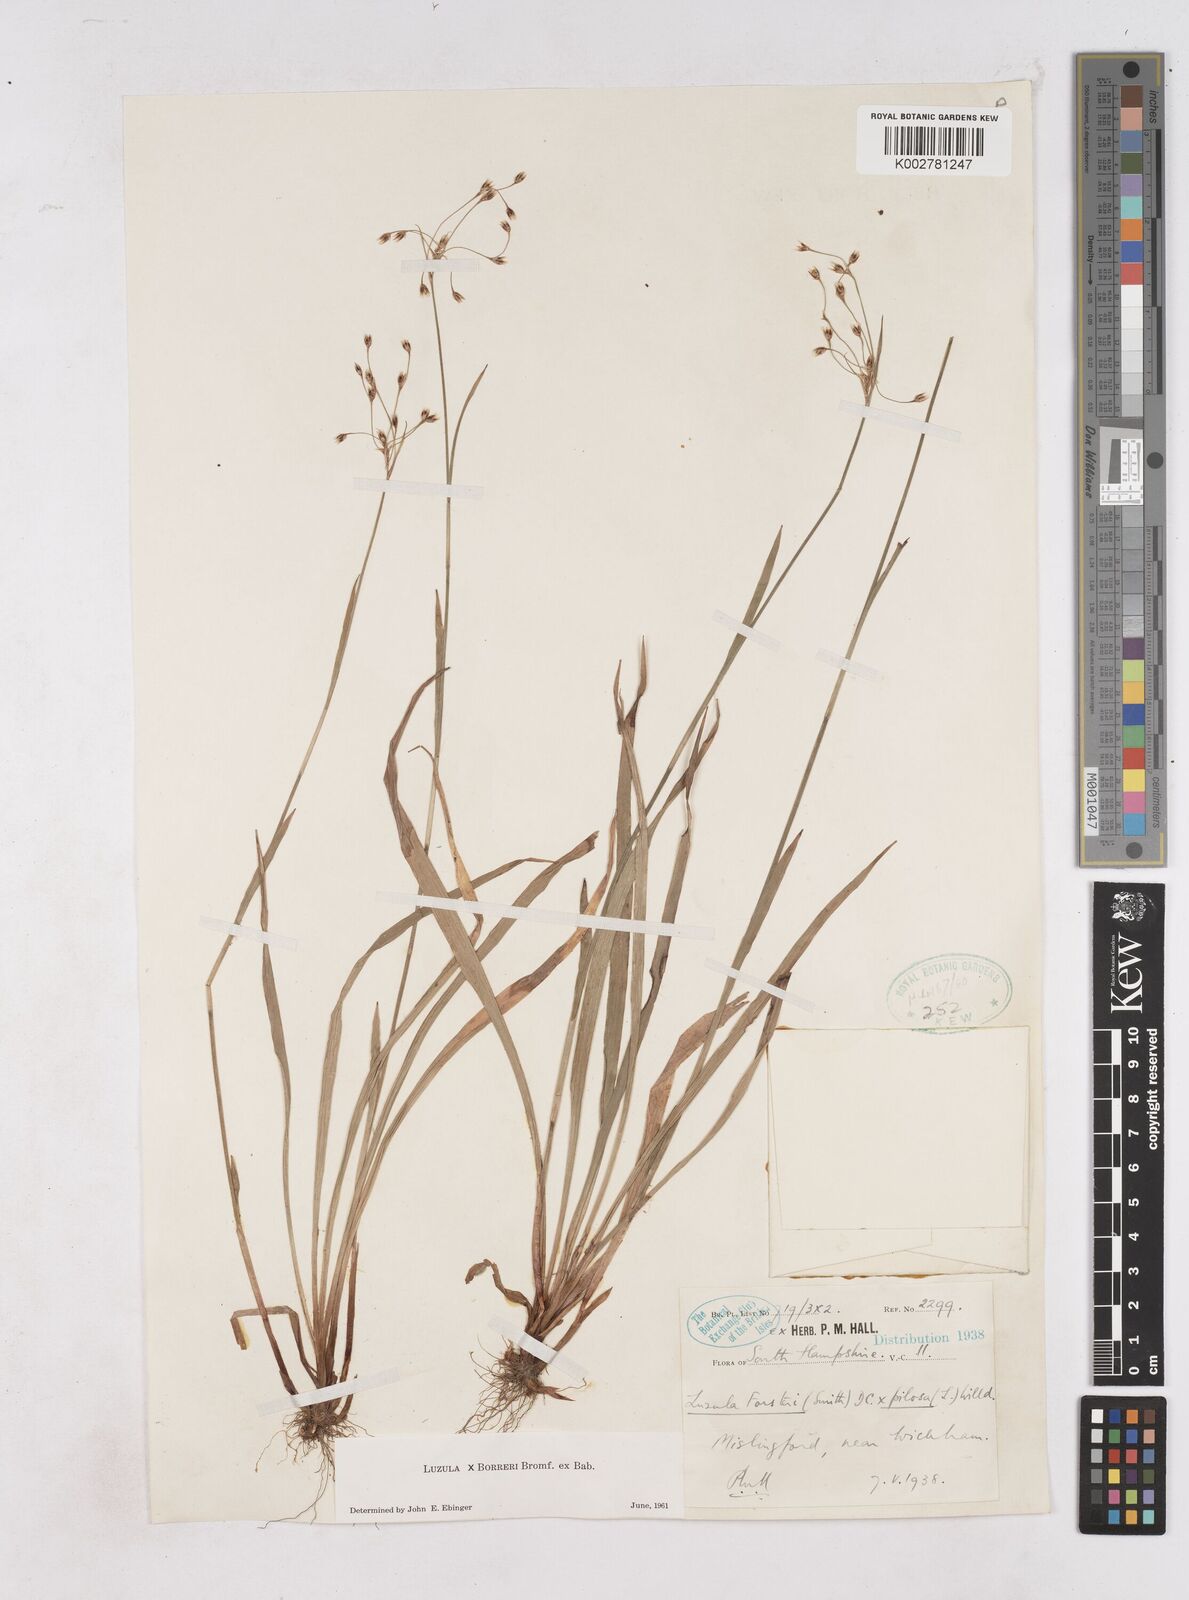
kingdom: Plantae
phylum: Tracheophyta
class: Liliopsida
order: Poales
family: Juncaceae
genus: Luzula
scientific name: Luzula forsteri
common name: Southern wood-rush
